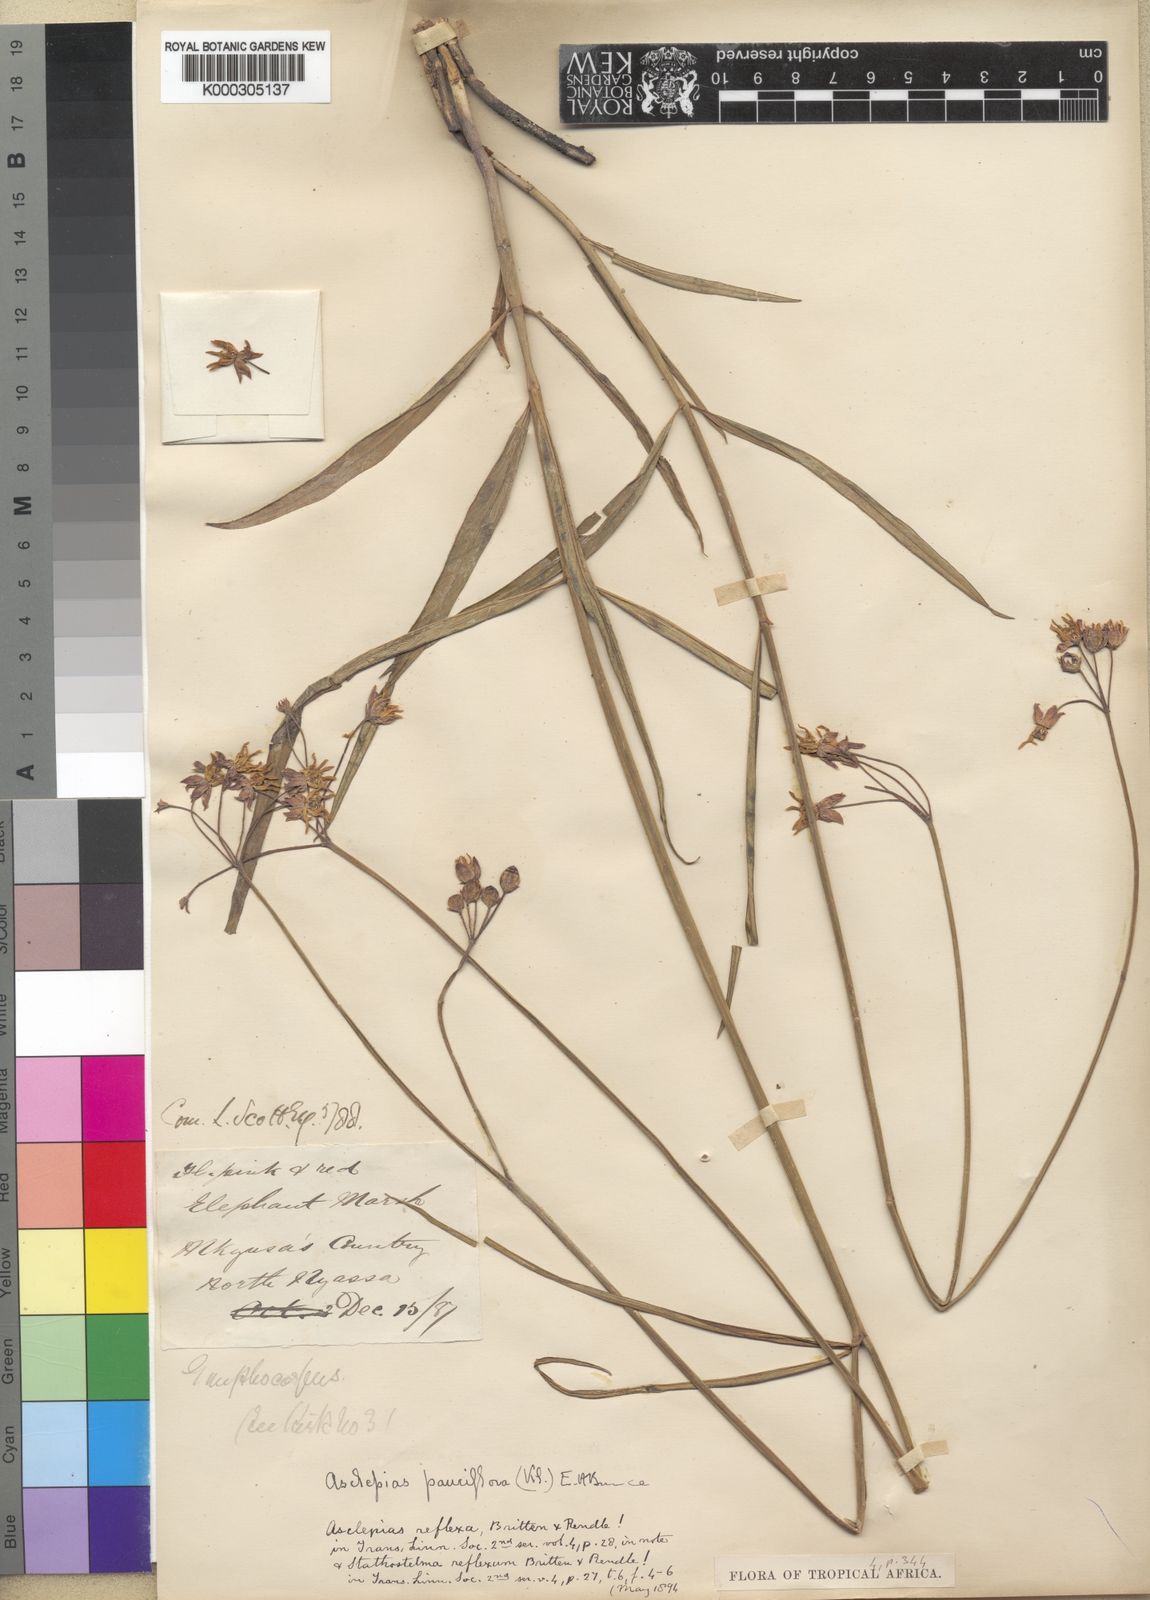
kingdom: Plantae
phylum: Tracheophyta
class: Magnoliopsida
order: Gentianales
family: Apocynaceae
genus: Stathmostelma
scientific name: Stathmostelma pauciflorum
